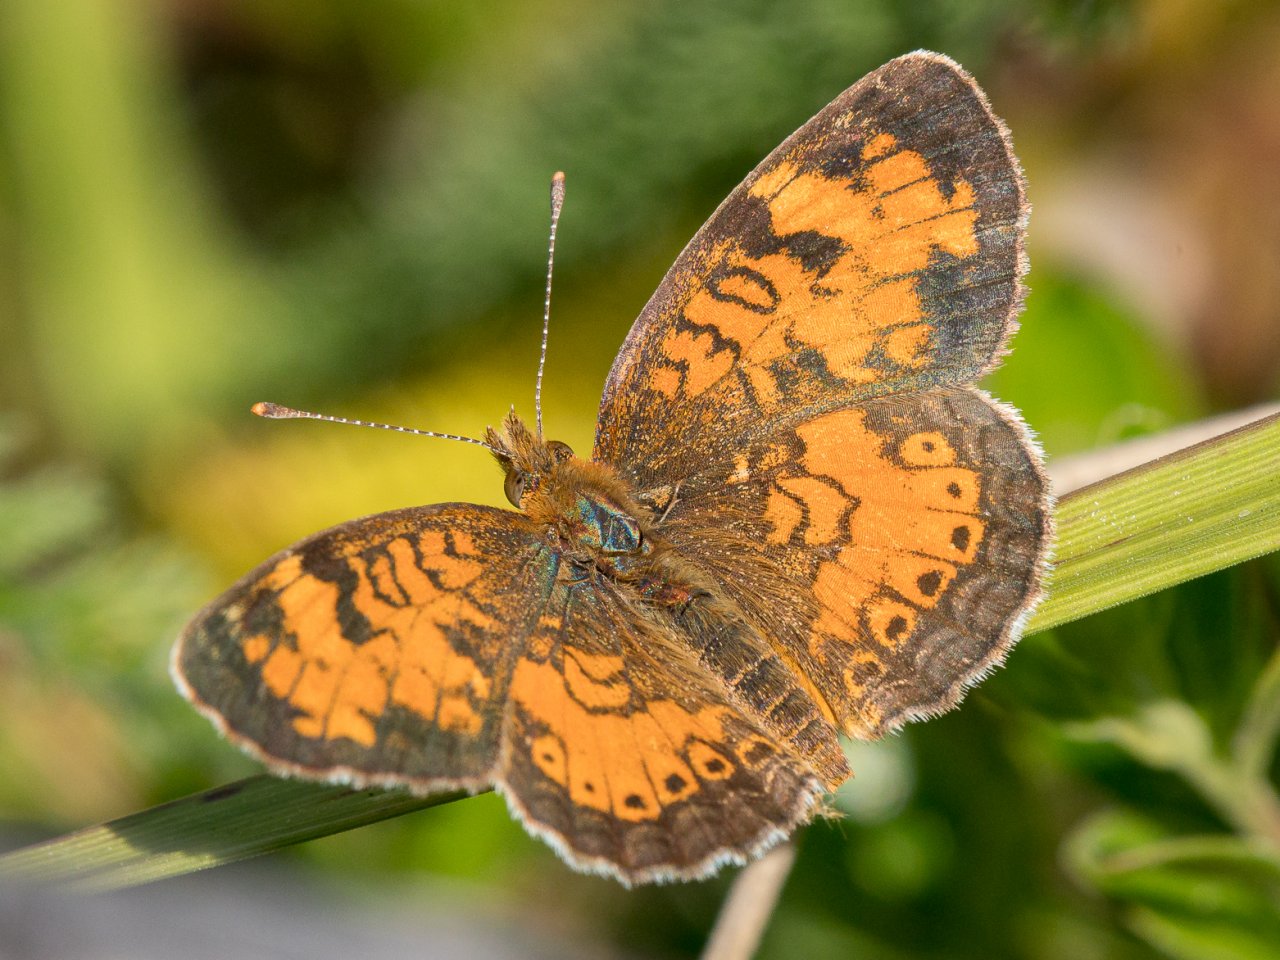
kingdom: Animalia
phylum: Arthropoda
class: Insecta
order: Lepidoptera
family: Nymphalidae
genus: Phyciodes
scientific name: Phyciodes tharos
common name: Northern Crescent
